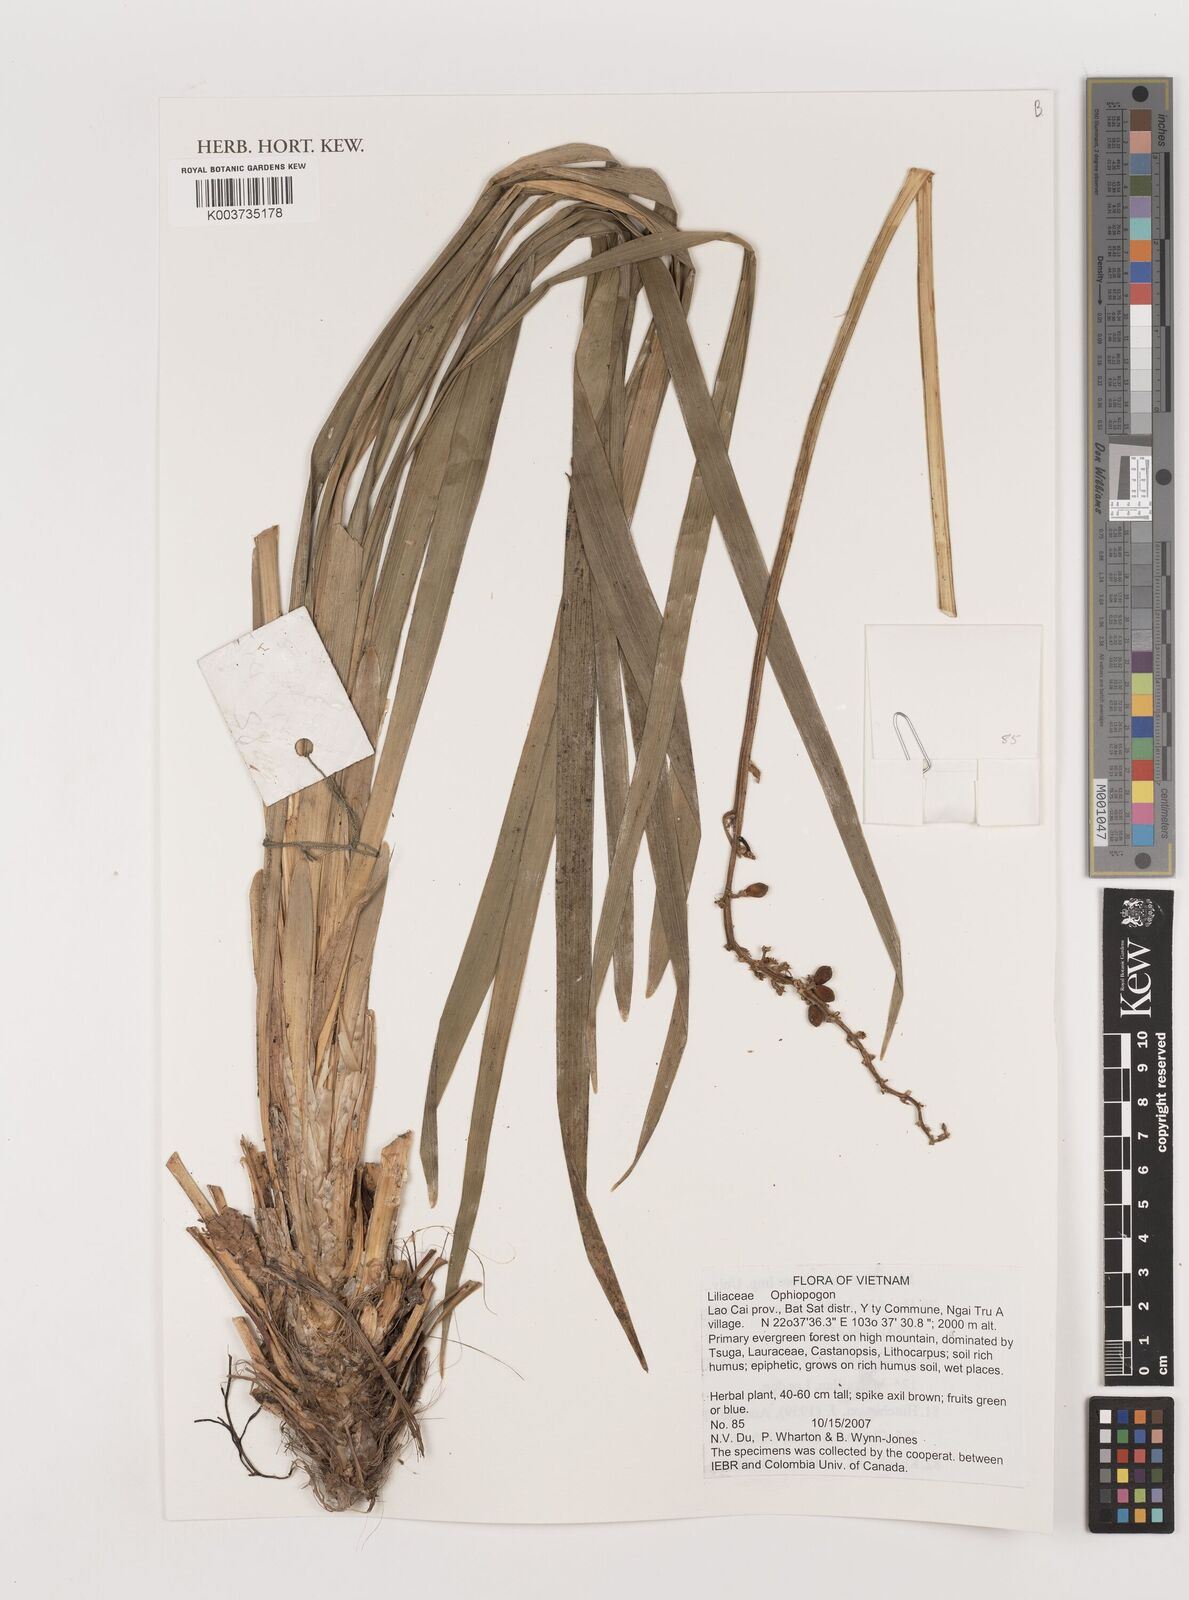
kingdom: Plantae
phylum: Tracheophyta
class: Liliopsida
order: Asparagales
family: Asparagaceae
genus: Ophiopogon
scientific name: Ophiopogon
